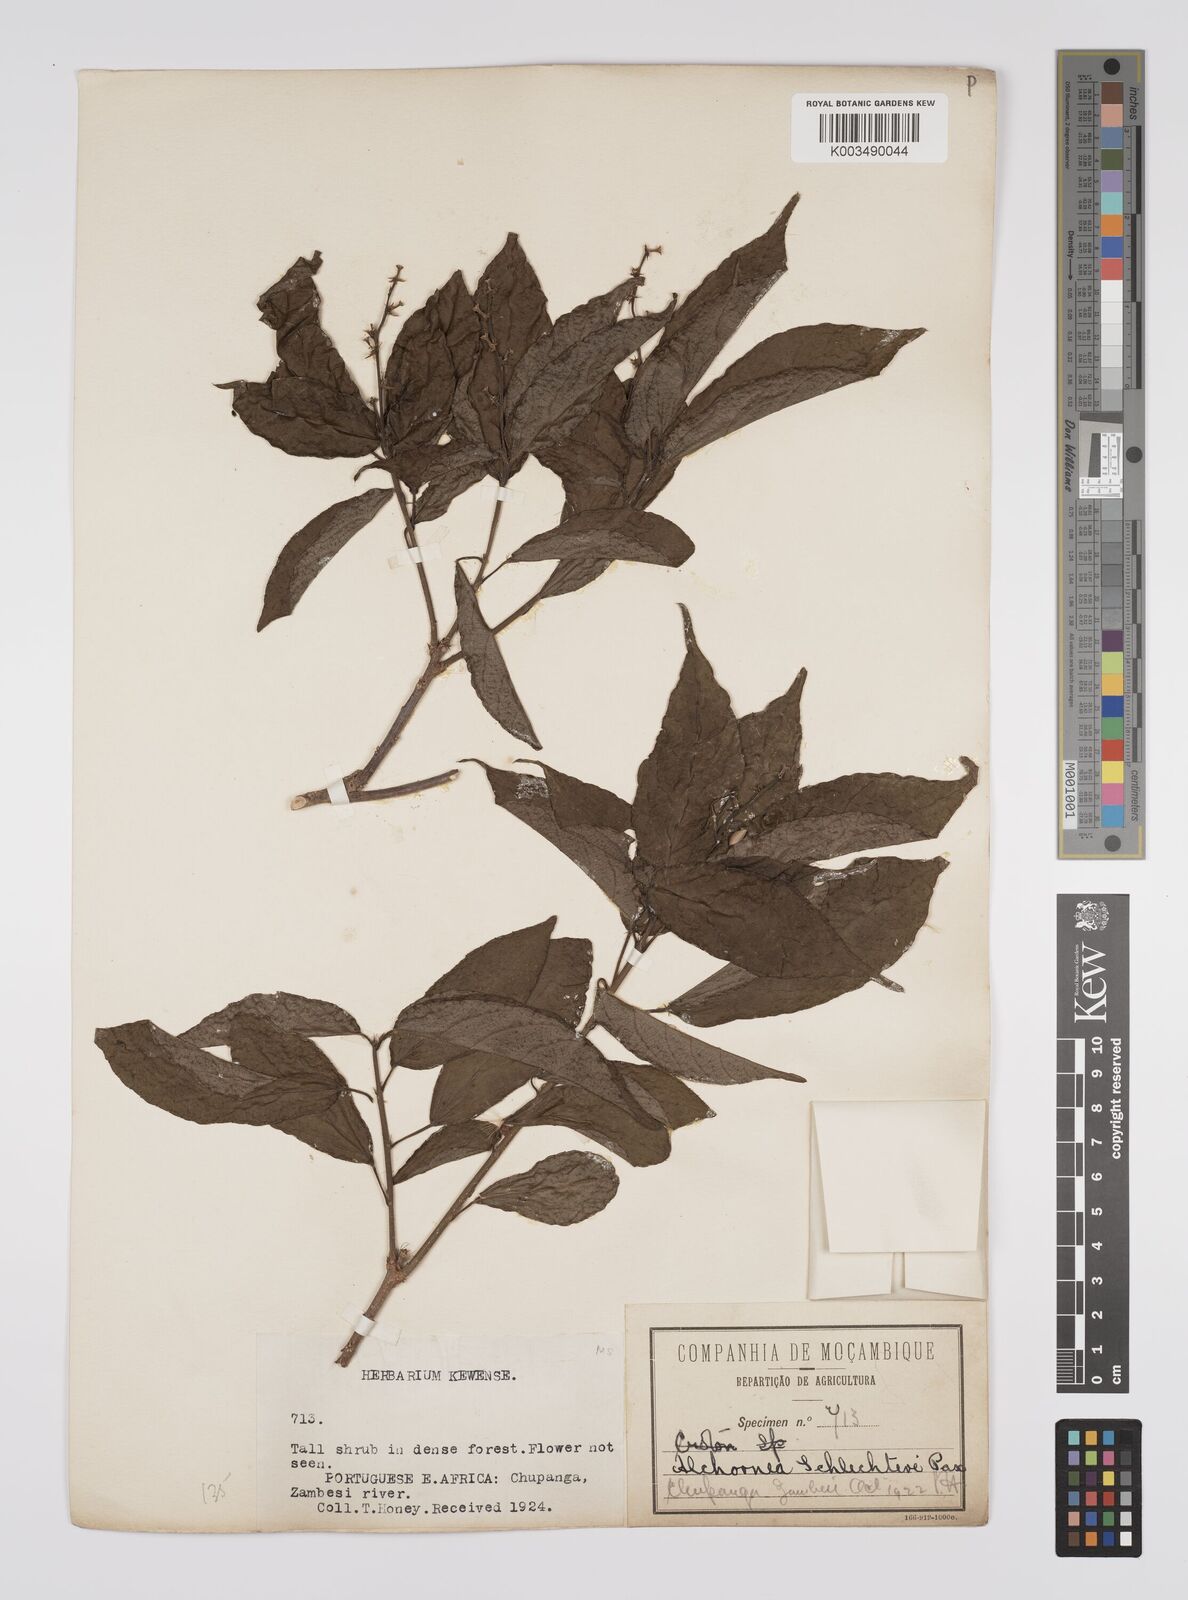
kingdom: Plantae
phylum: Tracheophyta
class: Magnoliopsida
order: Malpighiales
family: Euphorbiaceae
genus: Alchornea
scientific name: Alchornea laxiflora
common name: Lowveld bead-string
